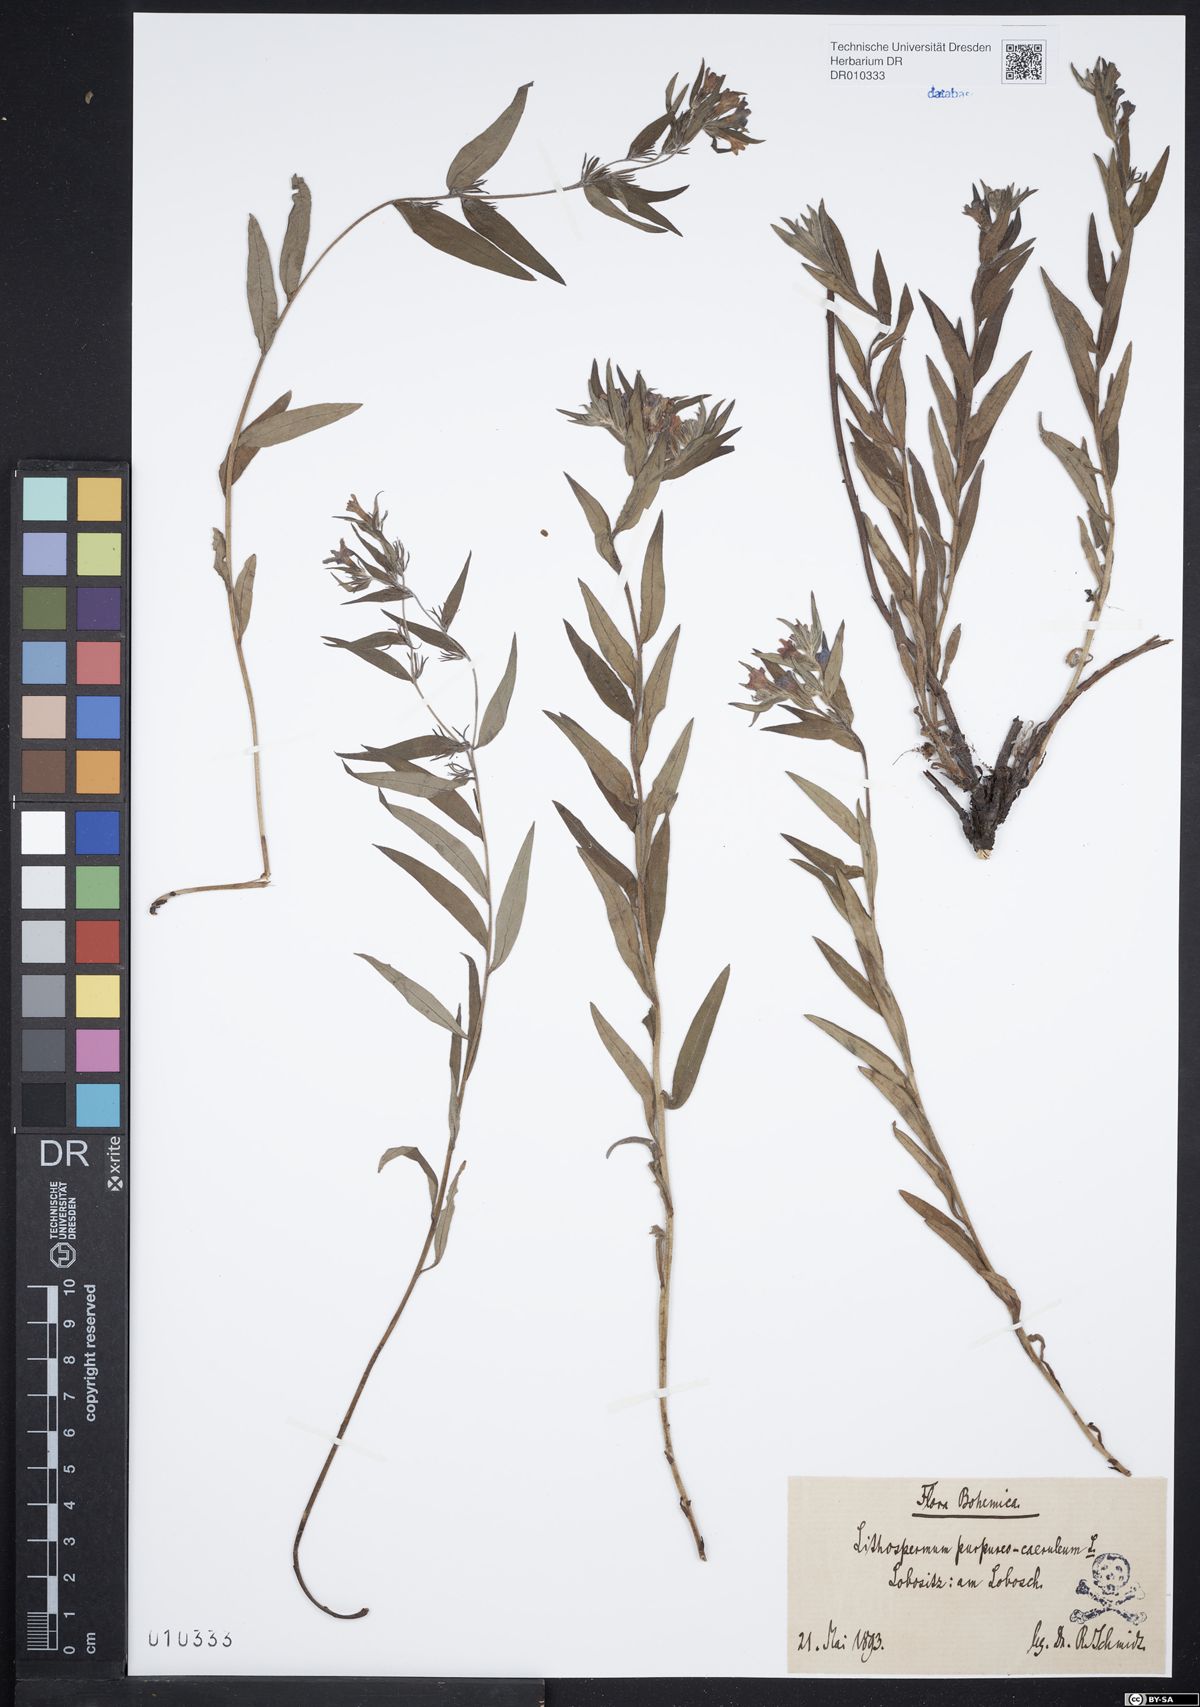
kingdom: Plantae
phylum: Tracheophyta
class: Magnoliopsida
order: Boraginales
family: Boraginaceae
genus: Aegonychon
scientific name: Aegonychon purpurocaeruleum
